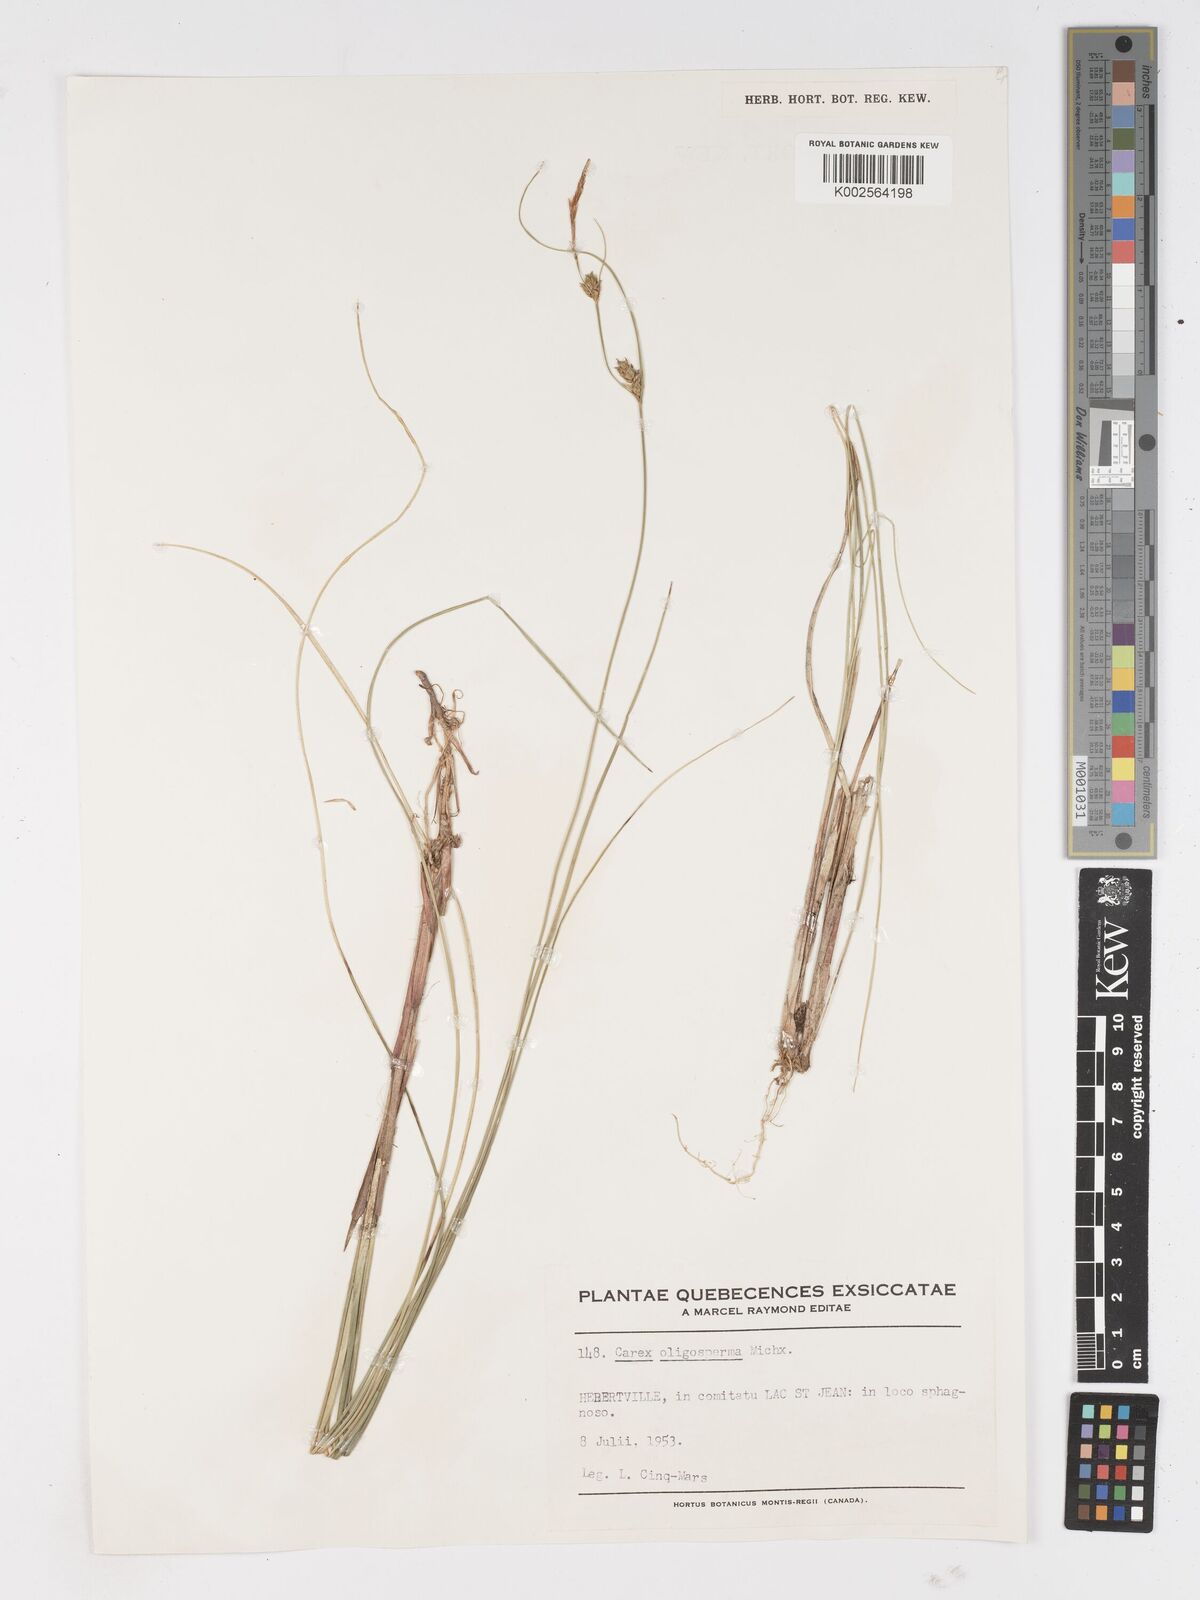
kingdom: Plantae
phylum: Tracheophyta
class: Liliopsida
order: Poales
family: Cyperaceae
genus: Carex
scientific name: Carex oligosperma
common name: Few-seed sedge
